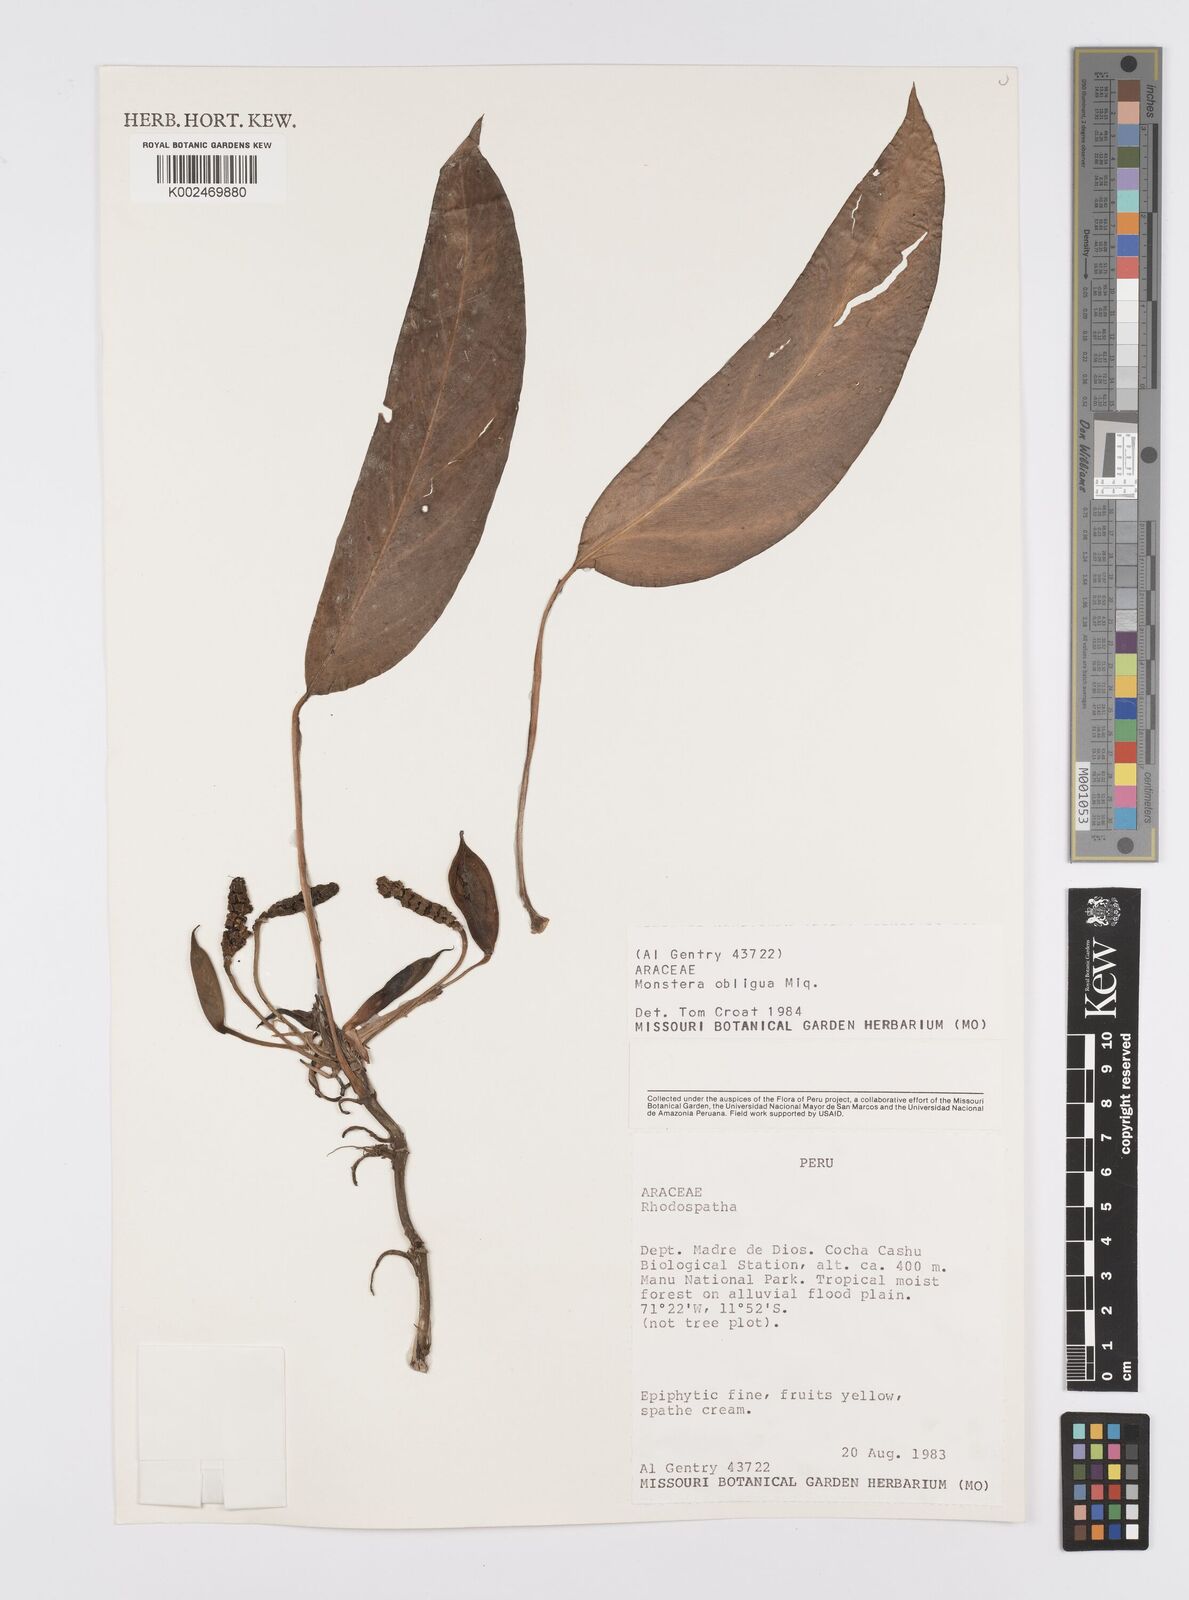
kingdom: Plantae
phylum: Tracheophyta
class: Liliopsida
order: Alismatales
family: Araceae
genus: Monstera
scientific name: Monstera obliqua
